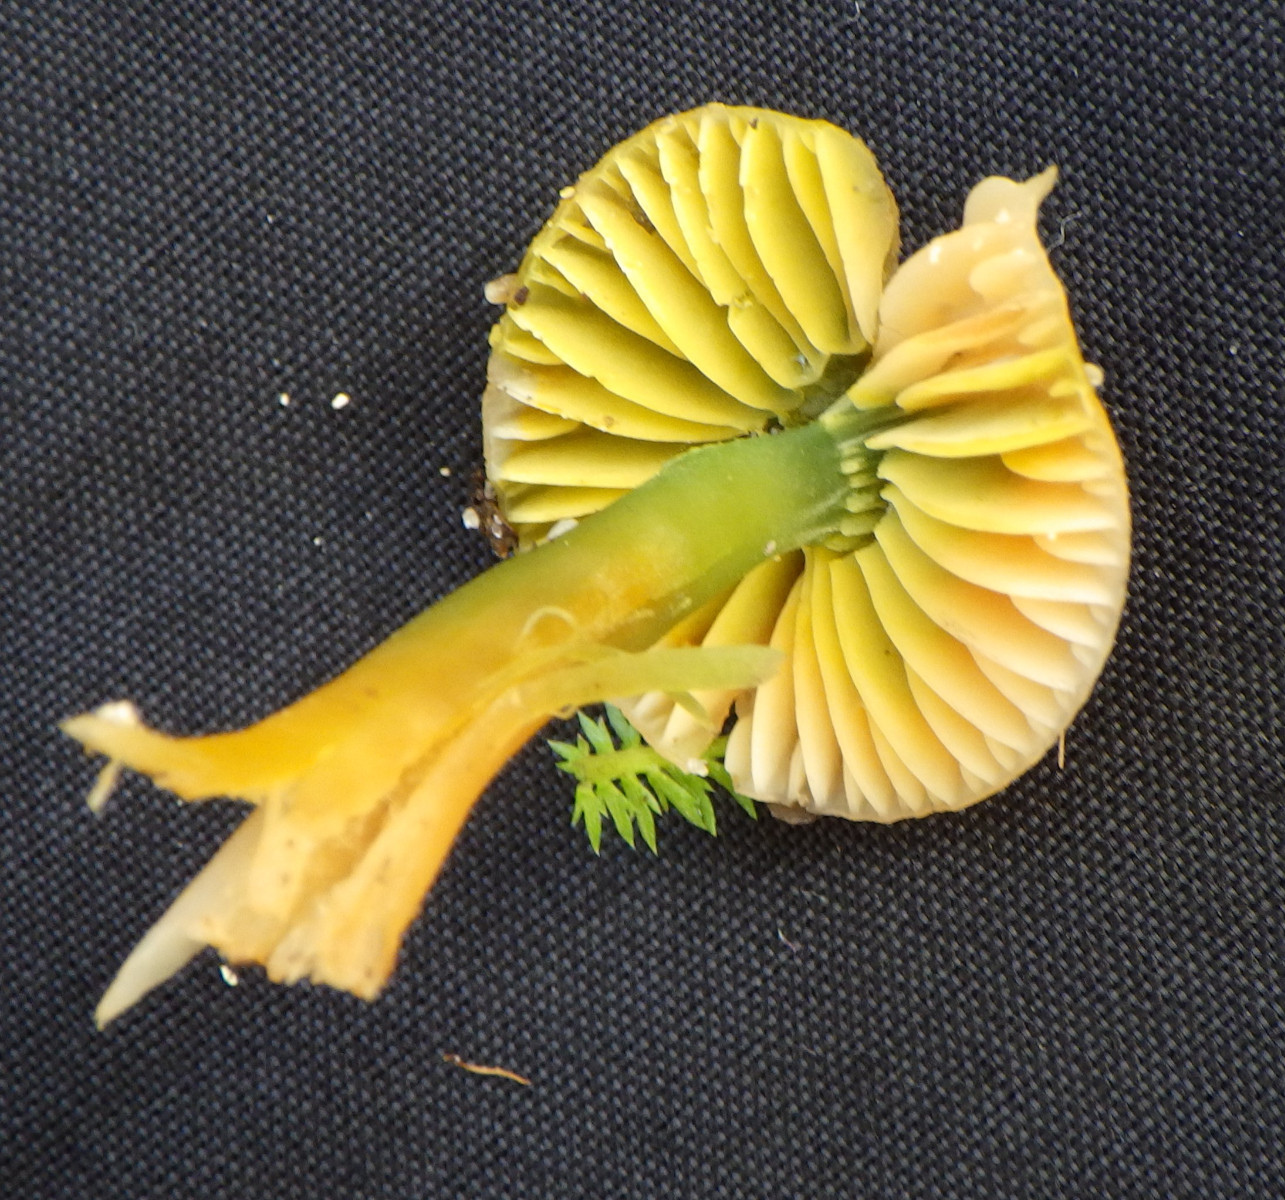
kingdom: Fungi
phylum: Basidiomycota
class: Agaricomycetes
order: Agaricales
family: Hygrophoraceae
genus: Gliophorus
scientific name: Gliophorus psittacinus
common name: papegøje-vokshat
